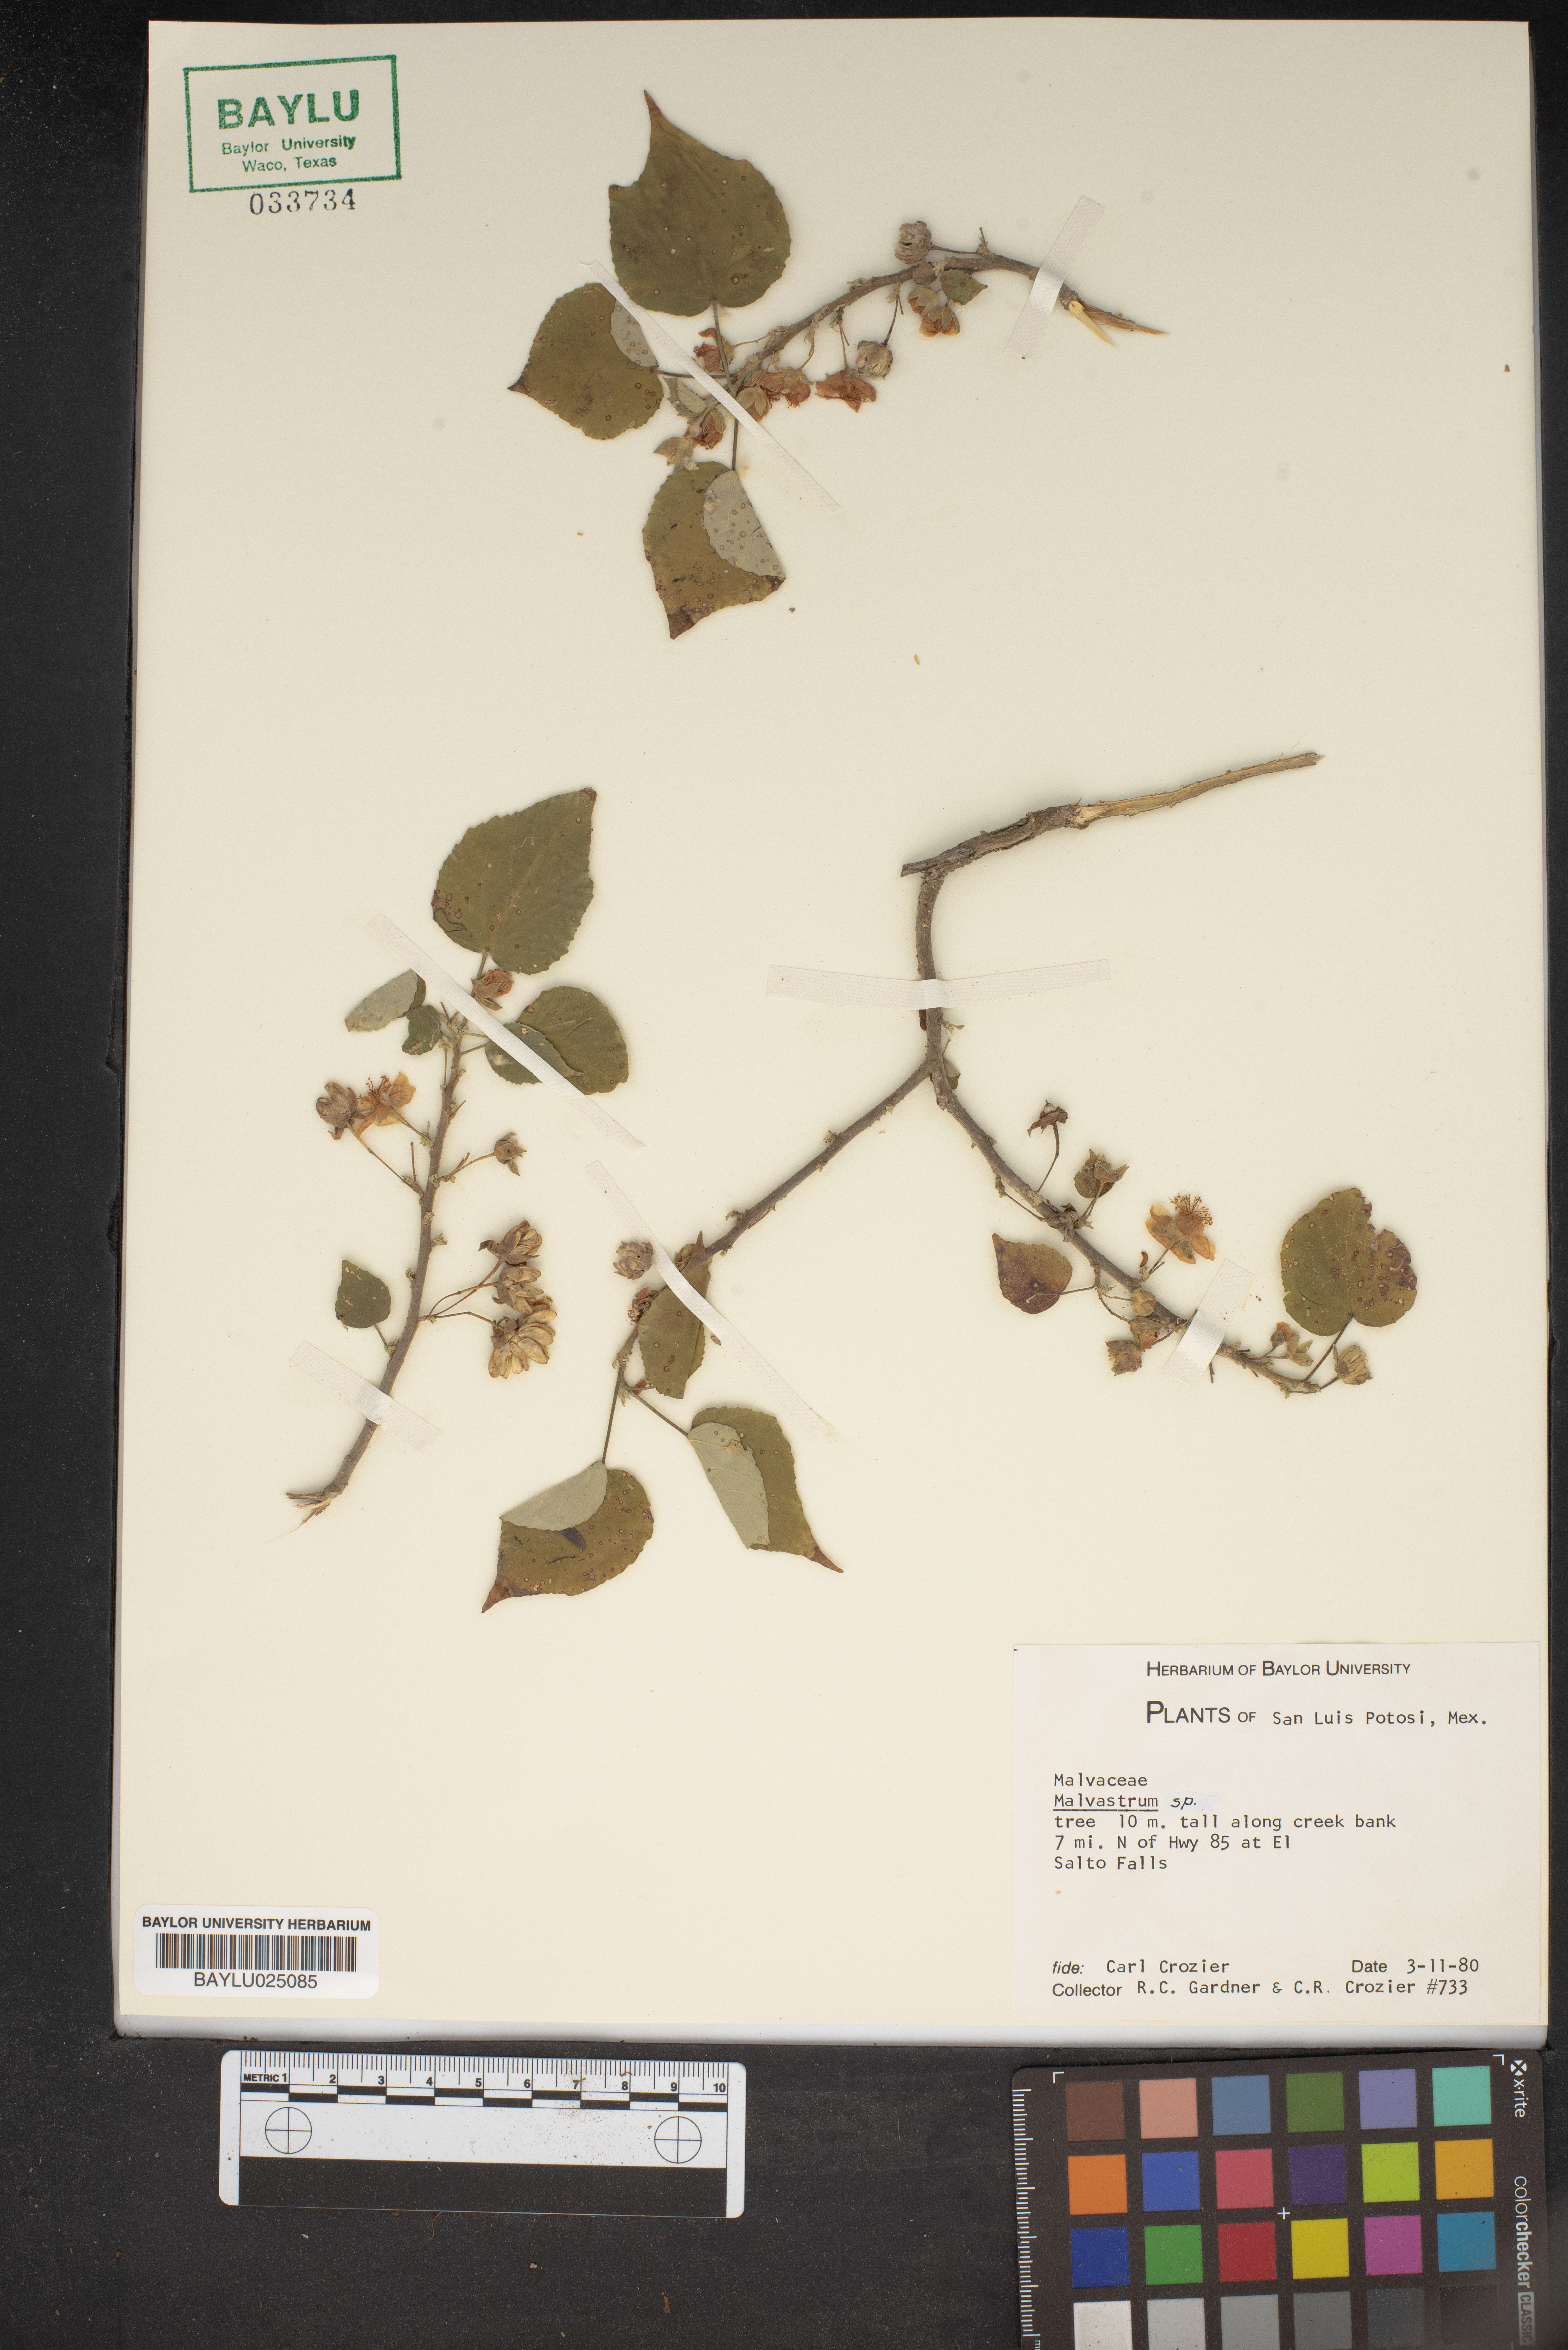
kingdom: Plantae
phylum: Tracheophyta
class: Magnoliopsida
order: Malvales
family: Malvaceae
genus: Malvastrum
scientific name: Malvastrum
